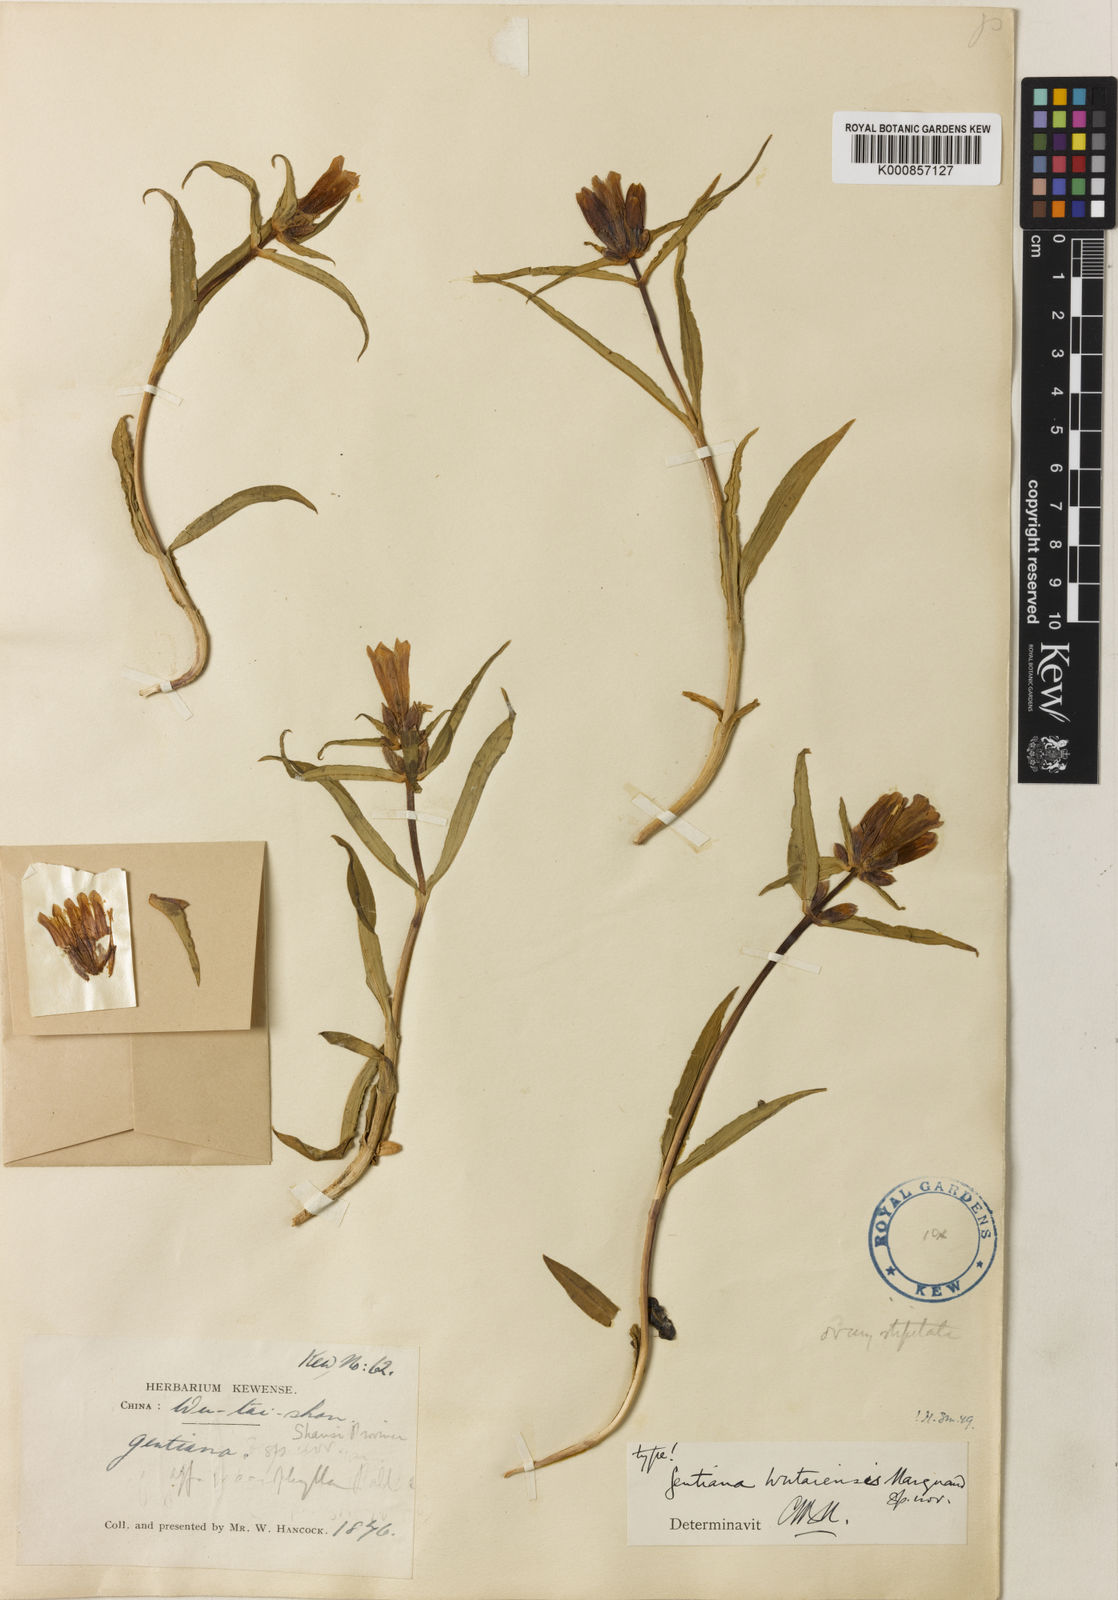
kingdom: Plantae
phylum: Tracheophyta
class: Magnoliopsida
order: Gentianales
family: Gentianaceae
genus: Gentiana
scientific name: Gentiana macrophylla
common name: Large-leaf gentian
